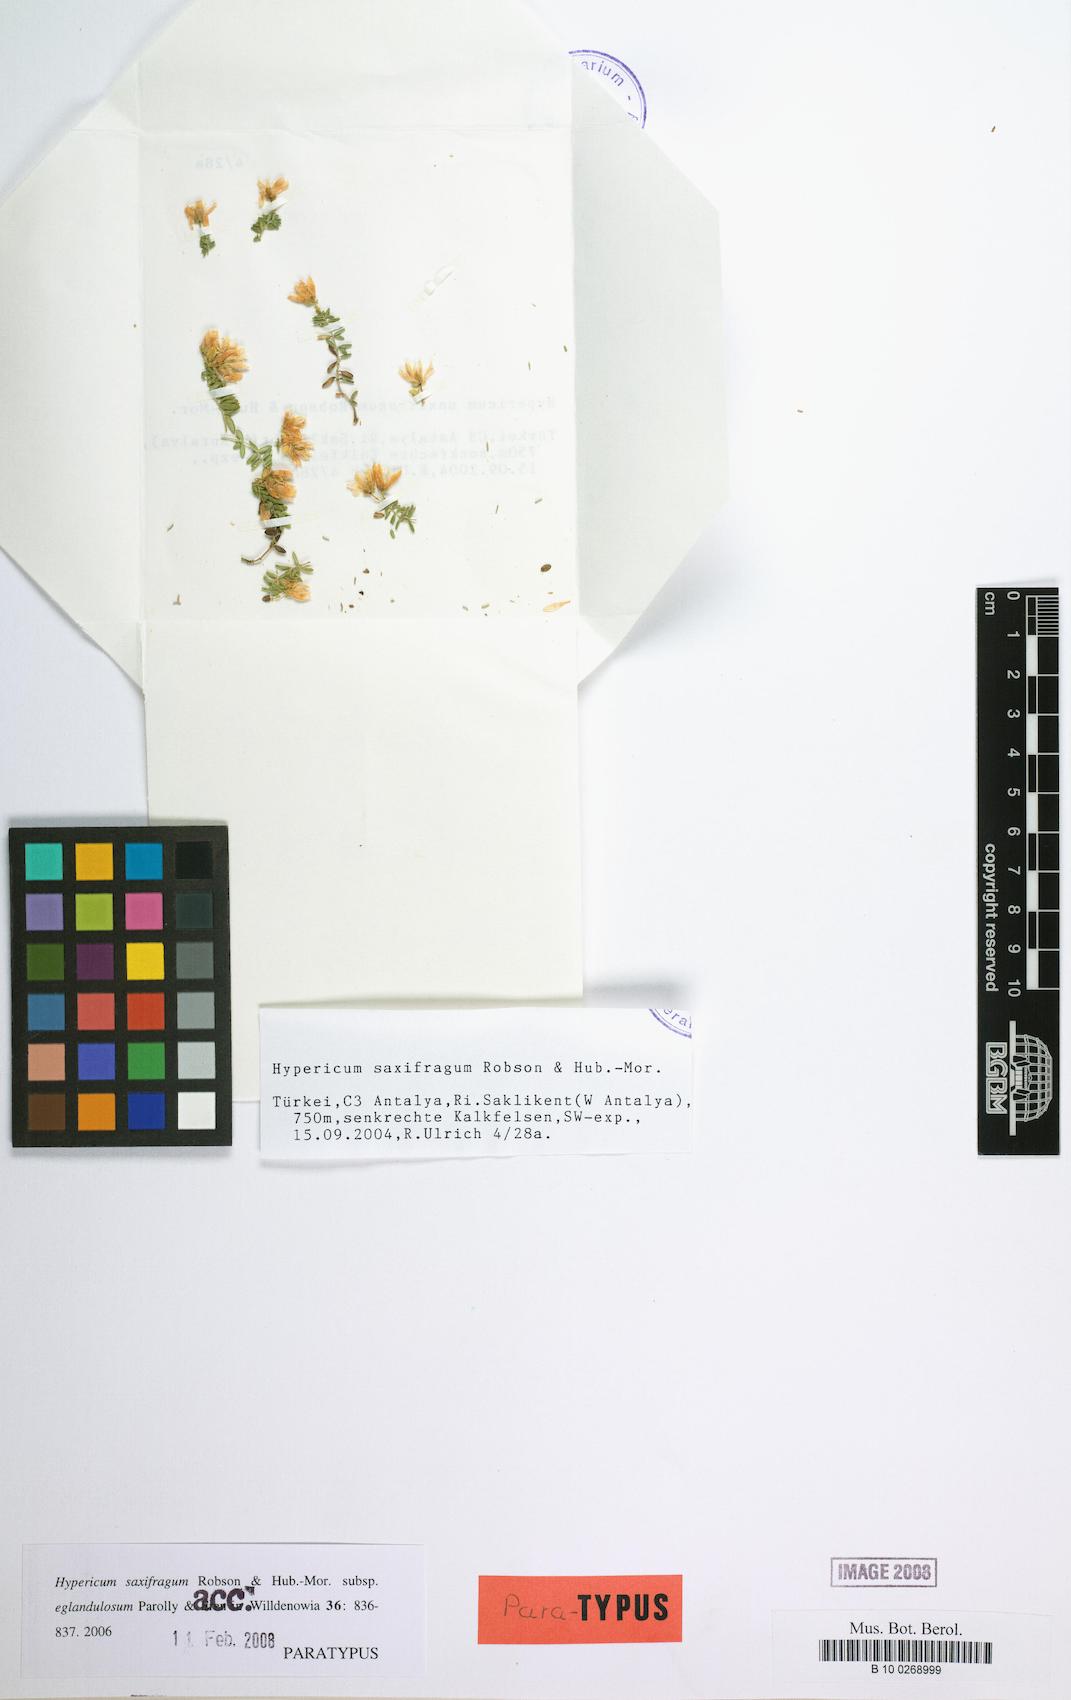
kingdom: Plantae
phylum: Tracheophyta
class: Magnoliopsida
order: Malpighiales
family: Hypericaceae
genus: Hypericum
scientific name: Hypericum saxifragum
